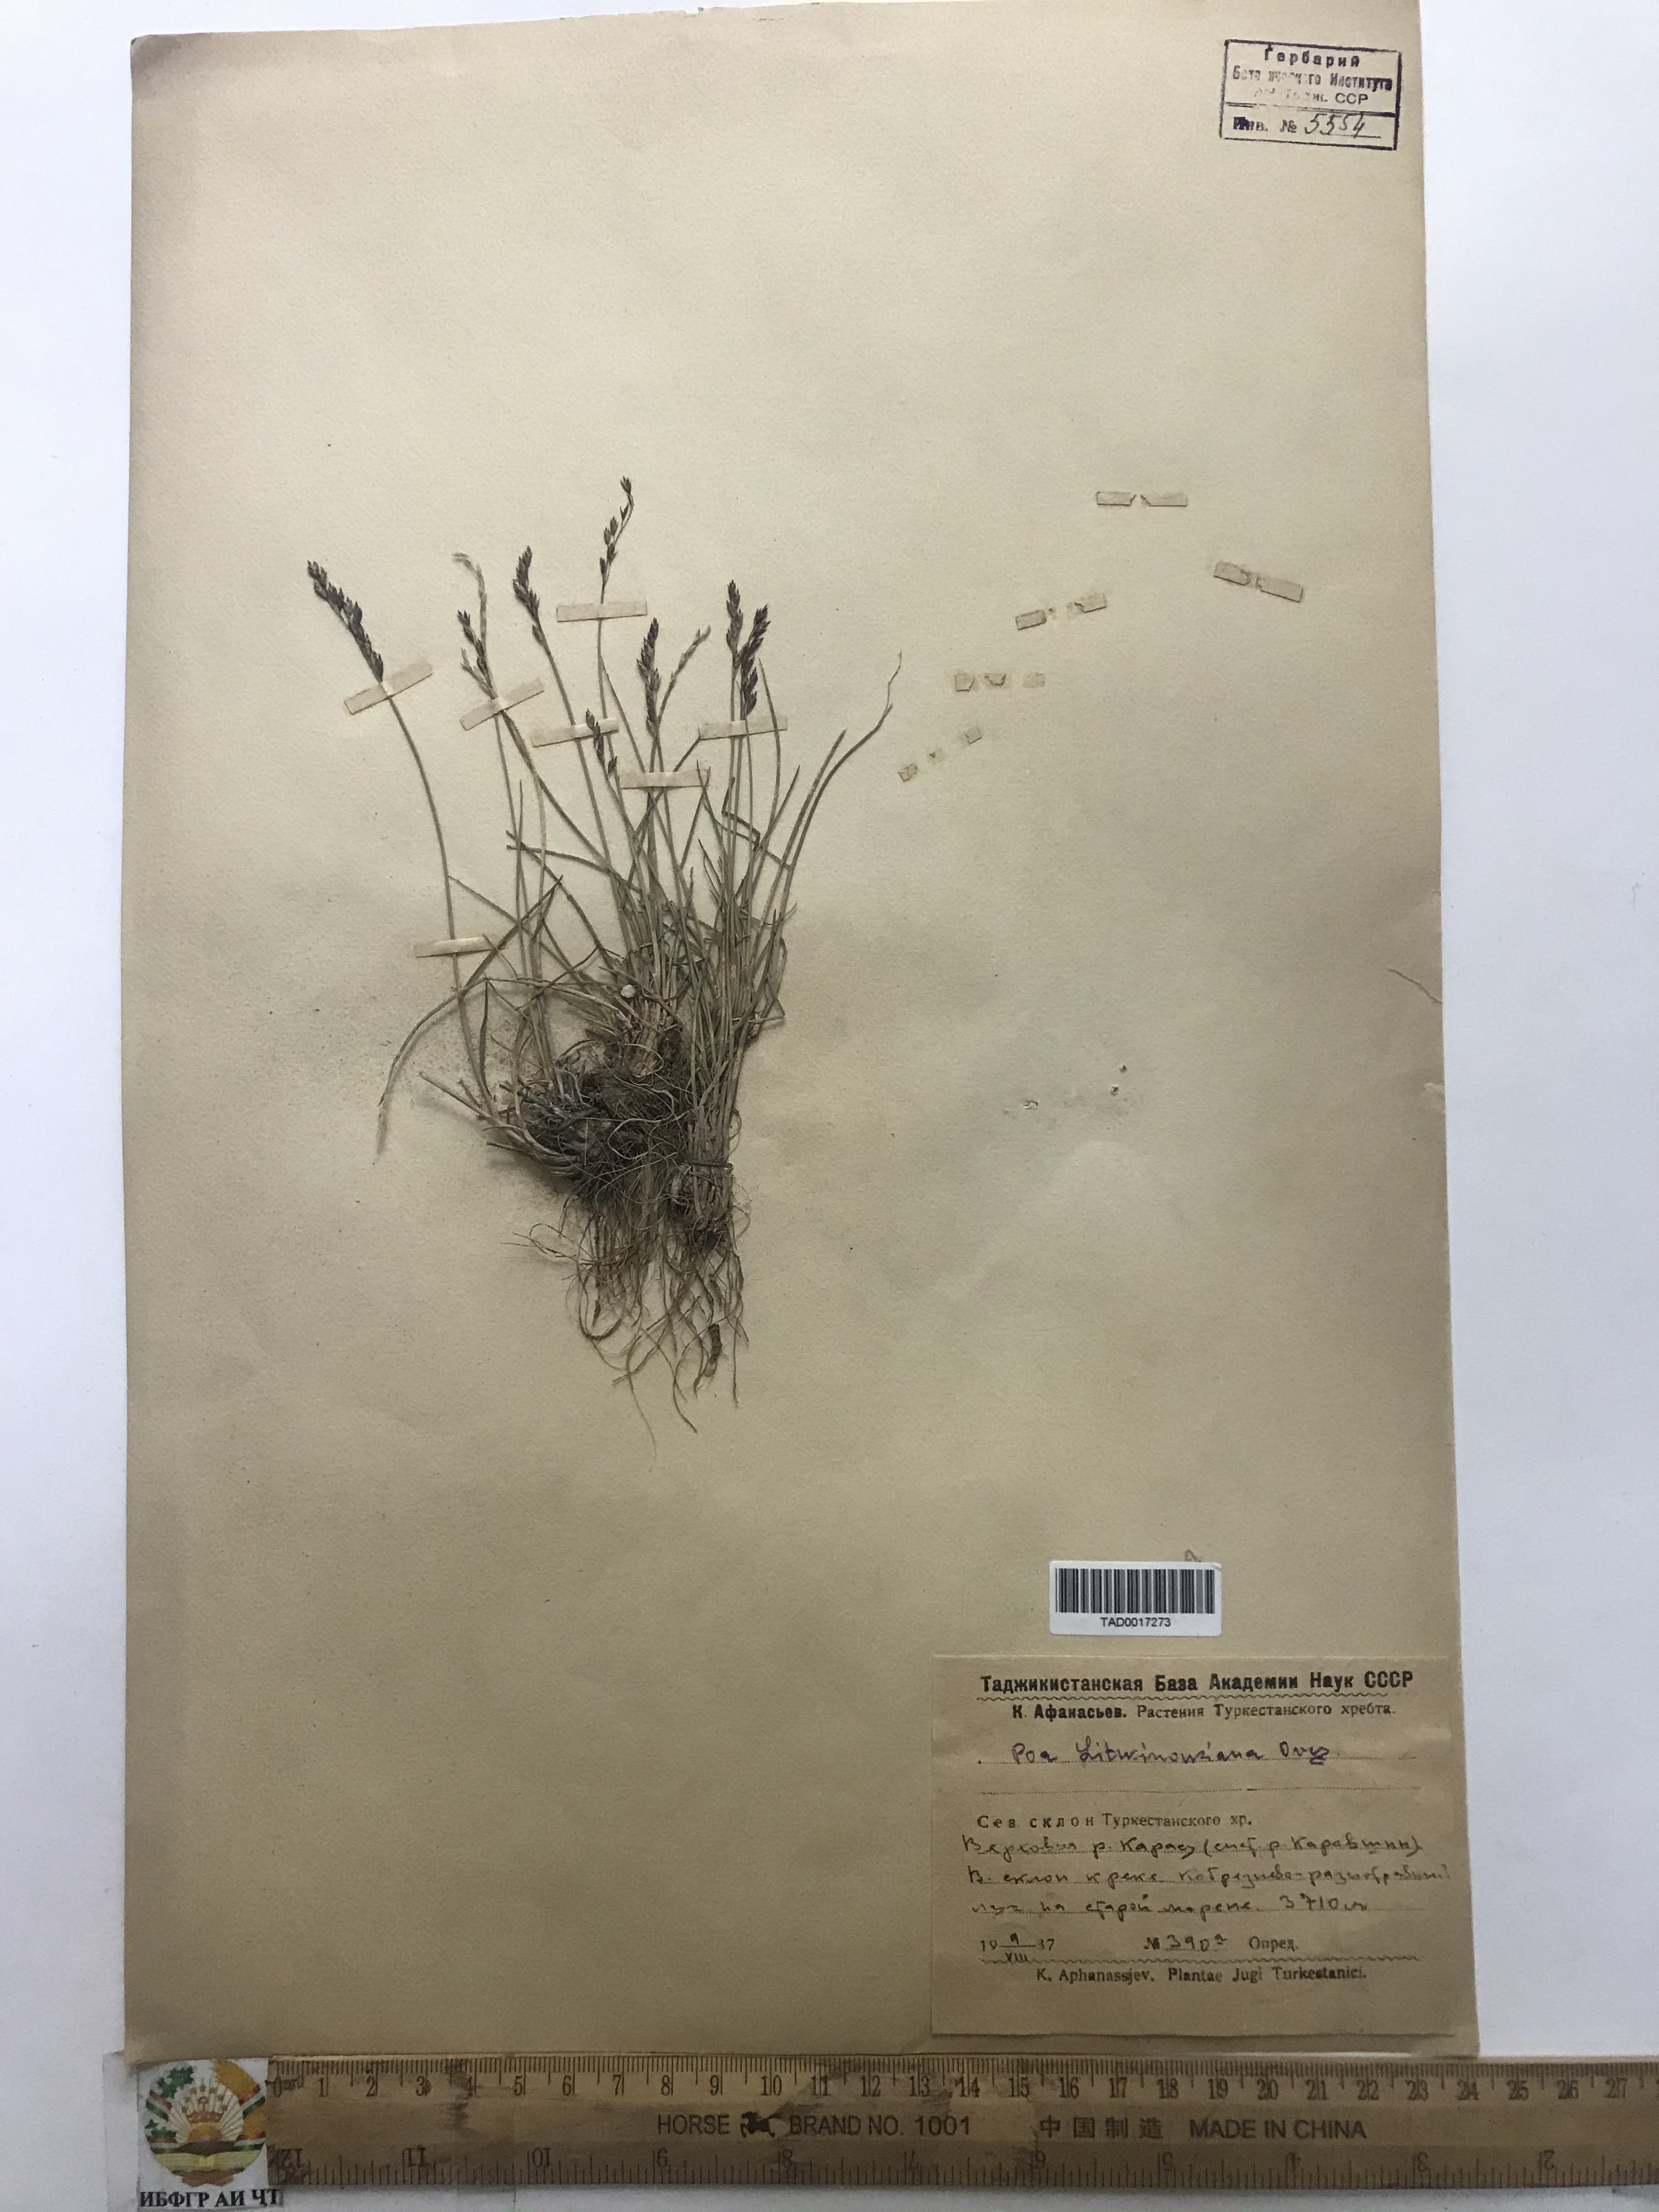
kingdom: Plantae
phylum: Tracheophyta
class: Liliopsida
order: Poales
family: Poaceae
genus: Poa
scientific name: Poa glauca
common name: Glaucous bluegrass
